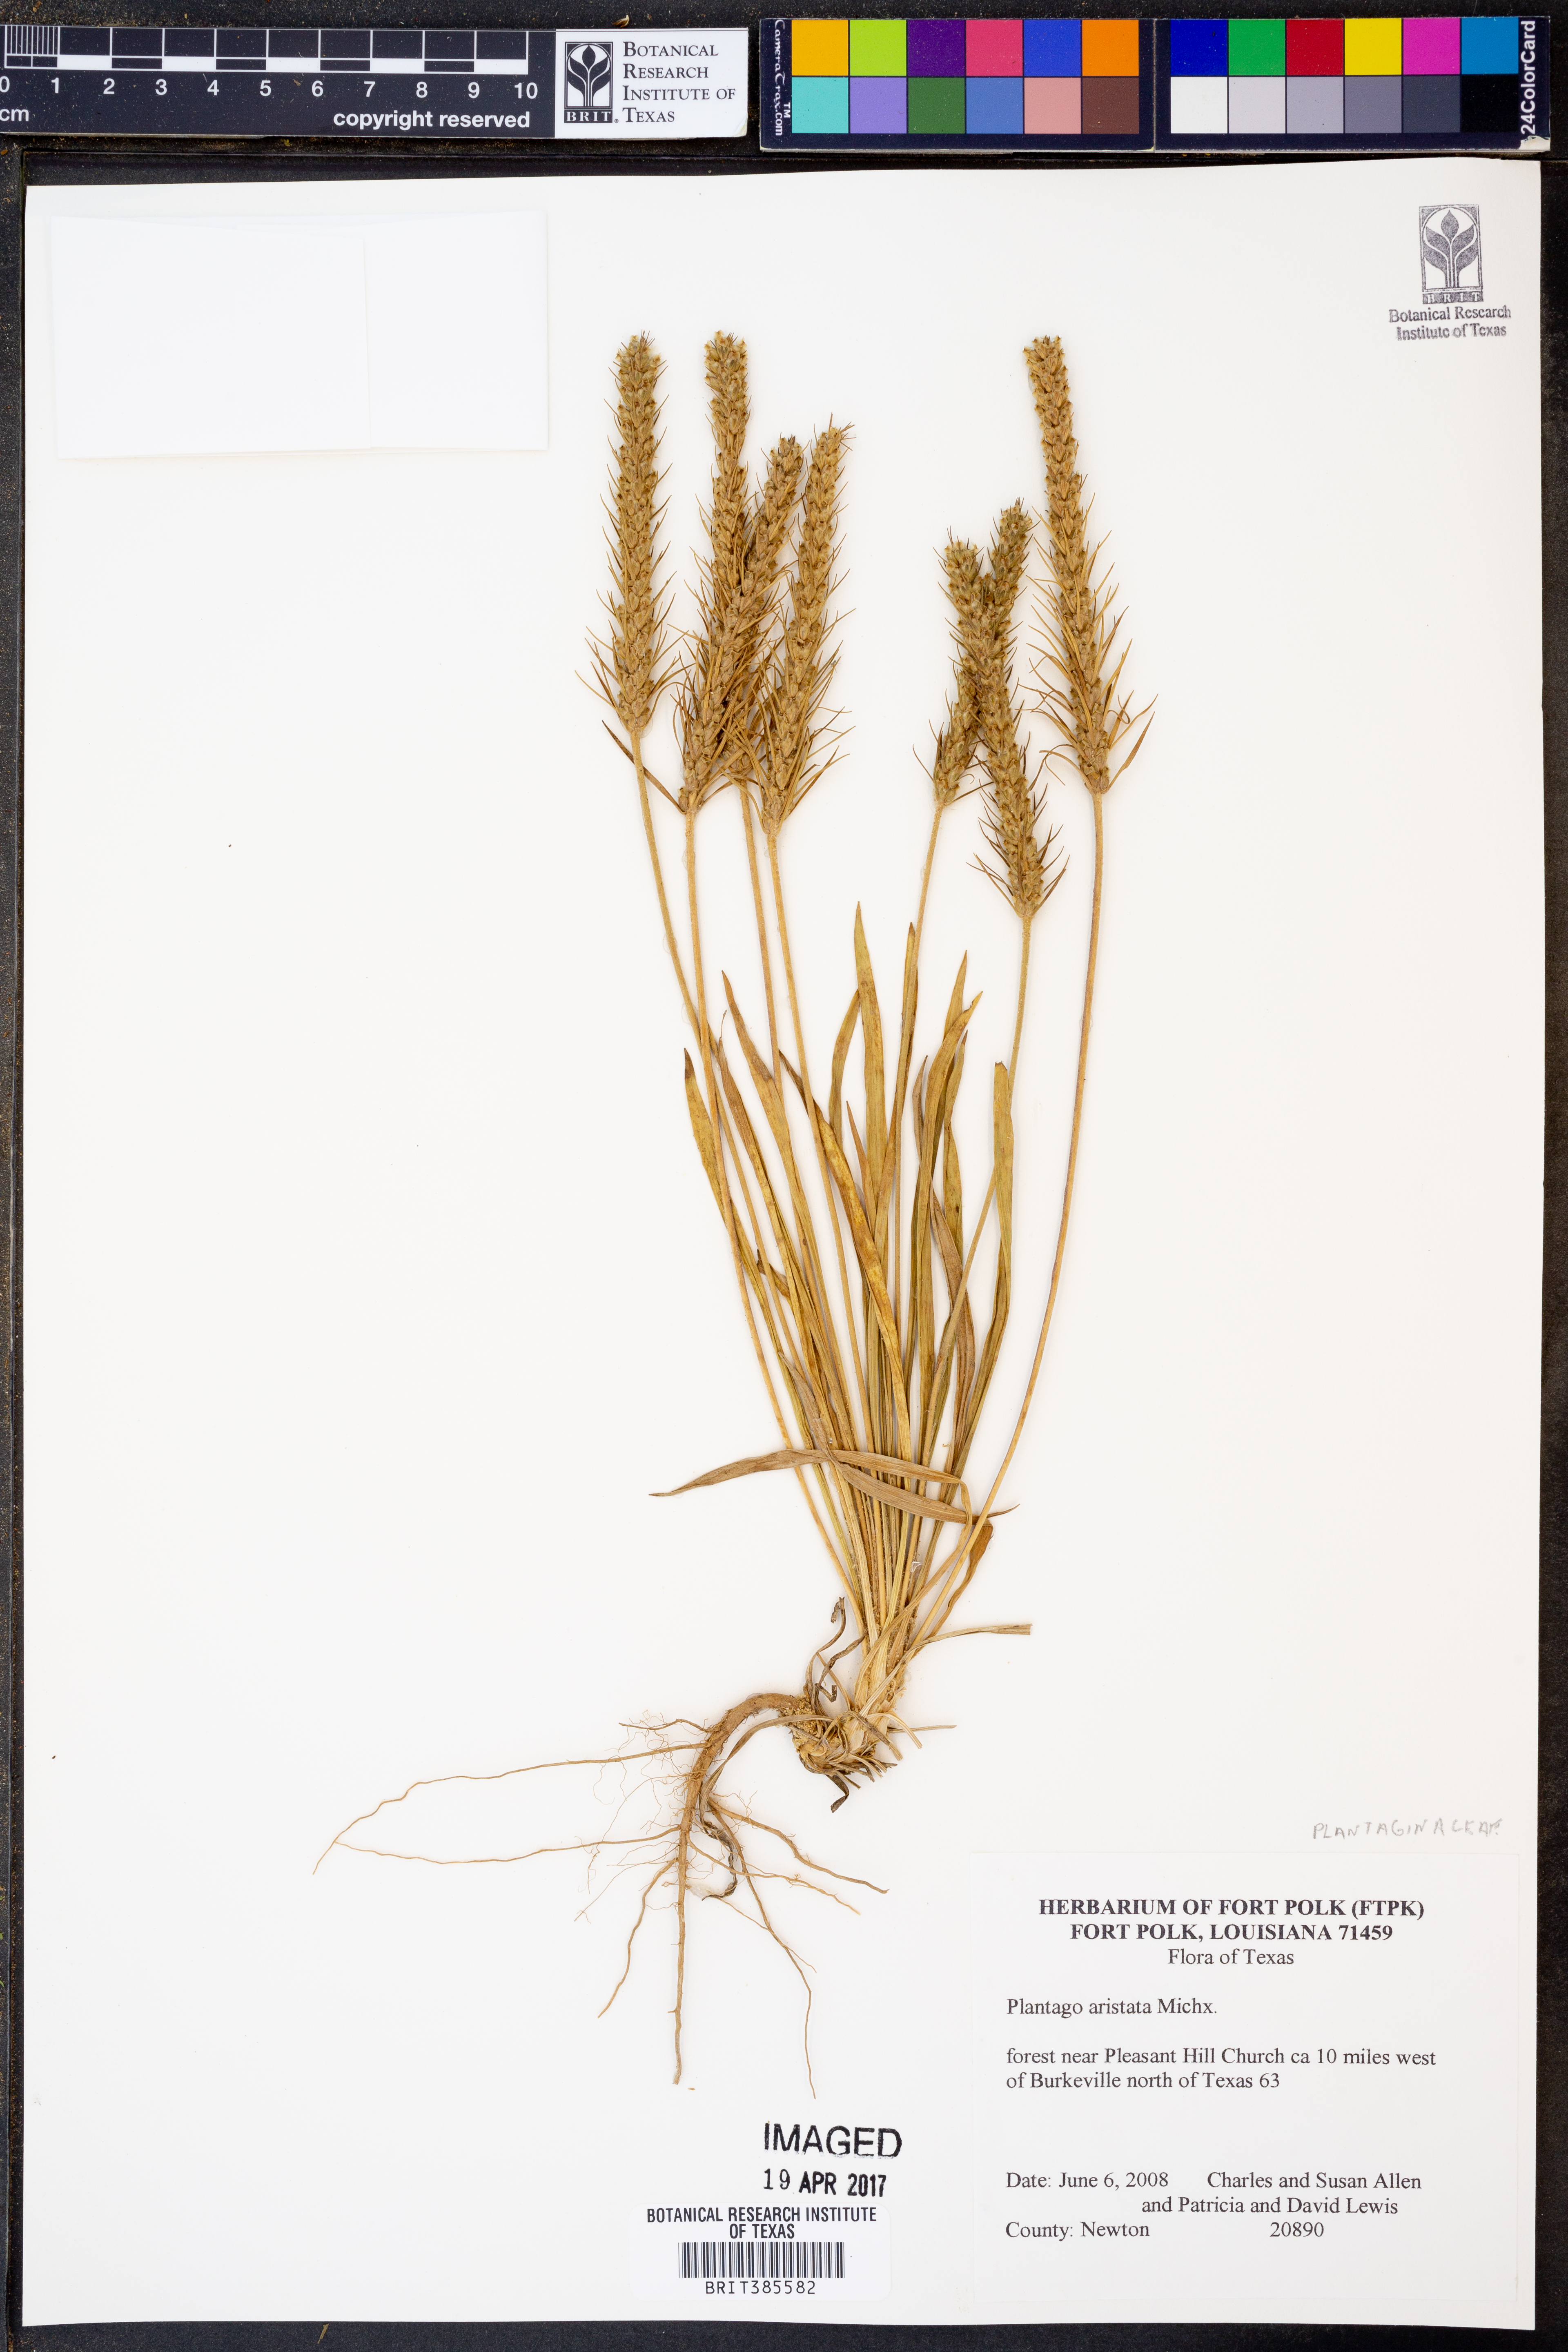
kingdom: Plantae
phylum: Tracheophyta
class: Magnoliopsida
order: Lamiales
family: Plantaginaceae
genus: Plantago
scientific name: Plantago aristata
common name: Bracted plantain
